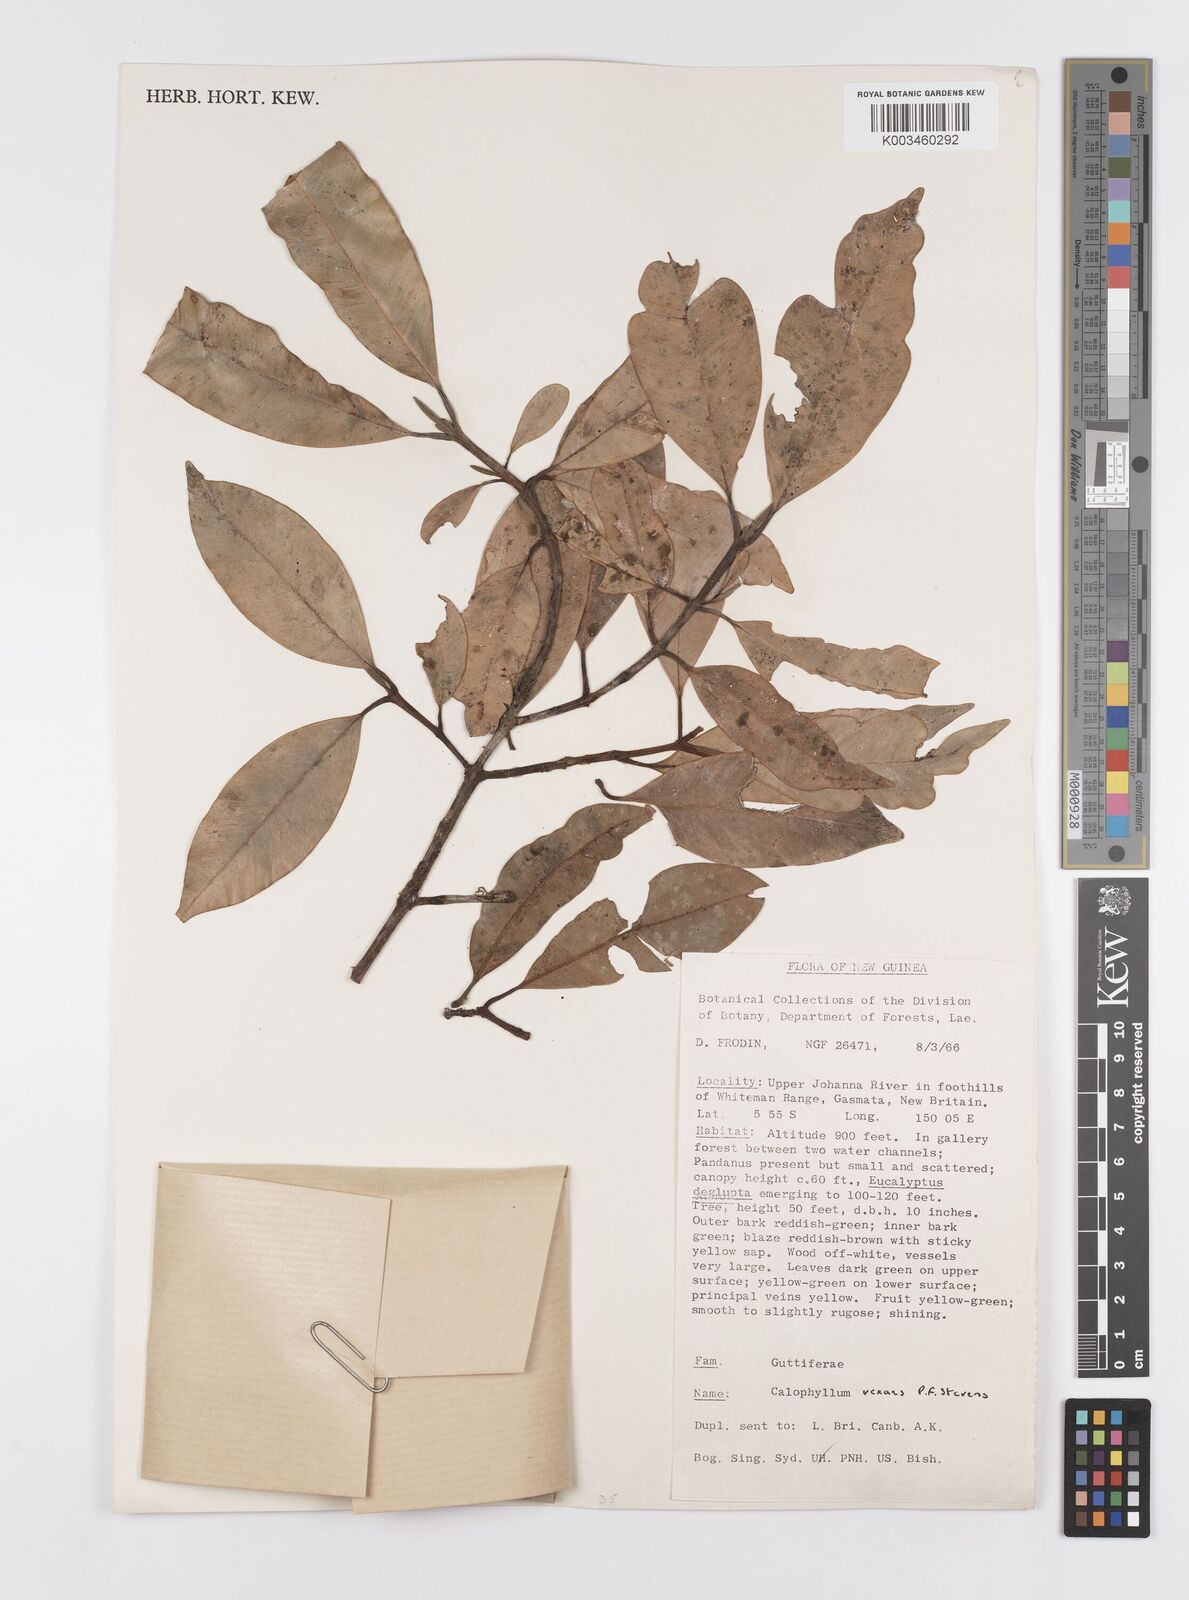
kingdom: Plantae
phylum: Tracheophyta
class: Magnoliopsida
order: Malpighiales
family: Calophyllaceae
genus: Calophyllum
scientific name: Calophyllum vexans
